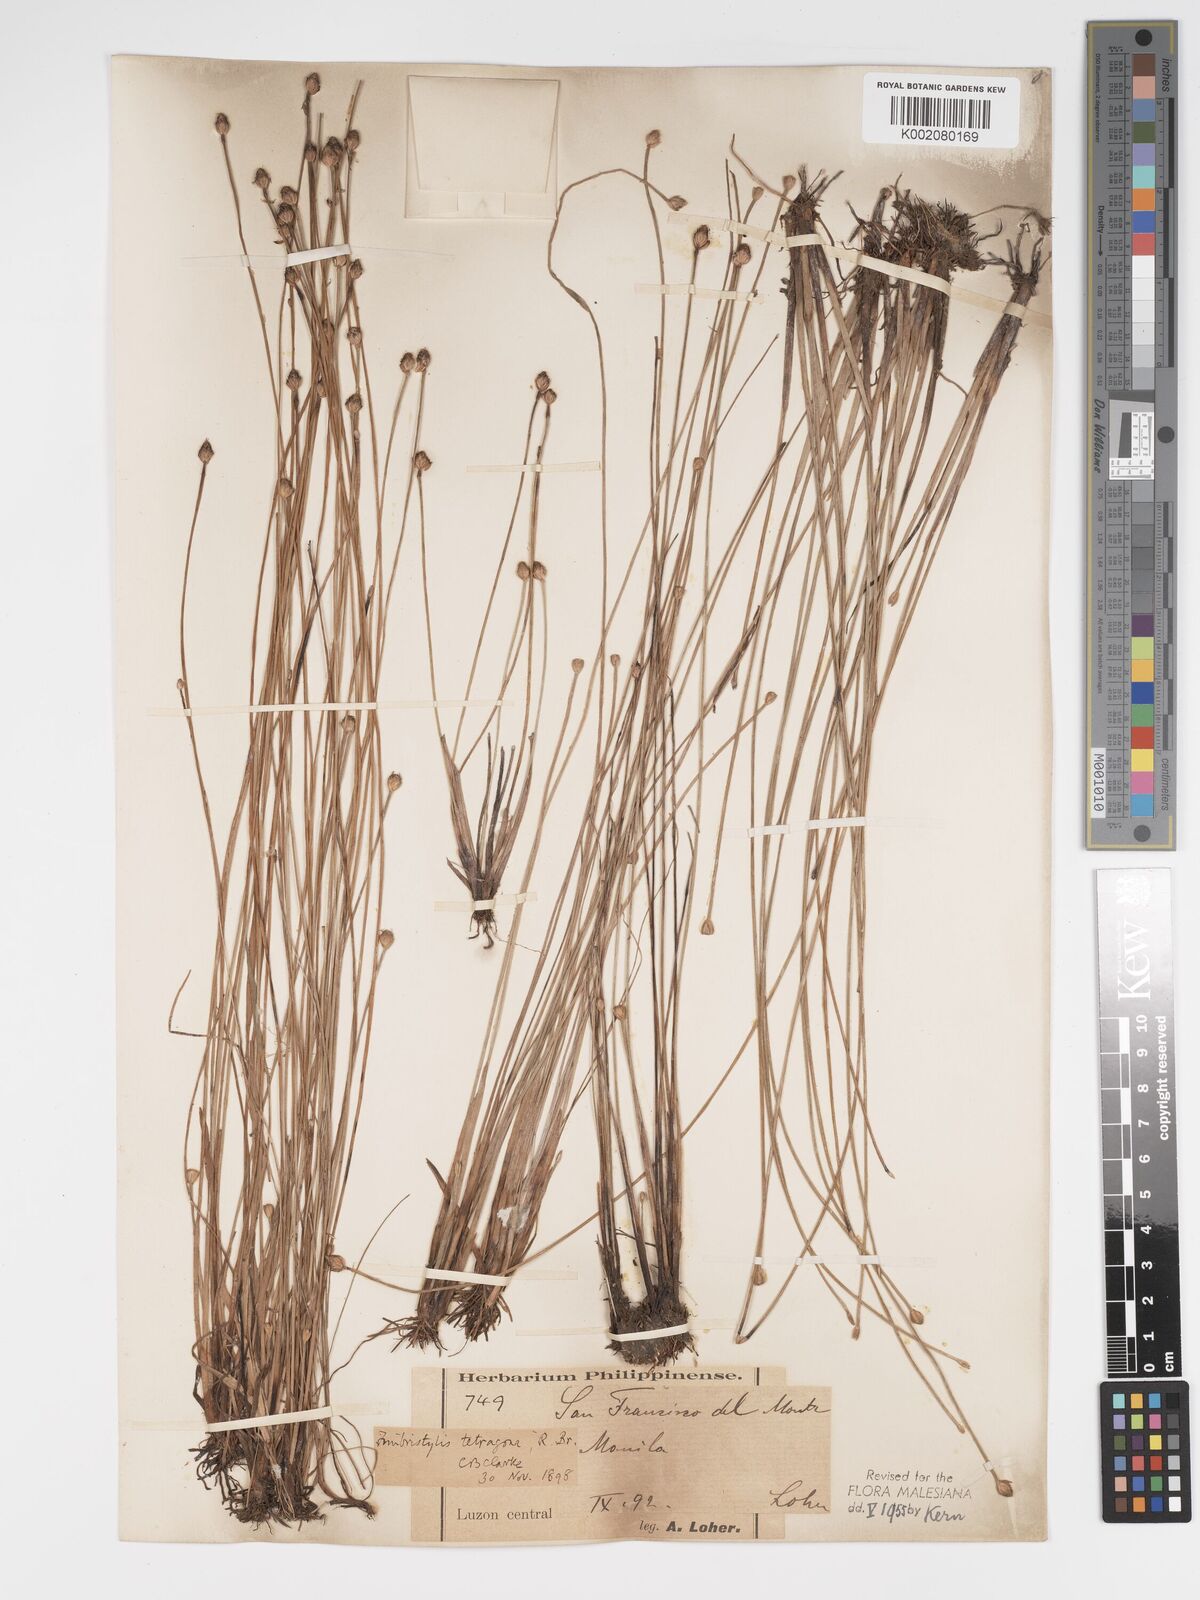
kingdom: Plantae
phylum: Tracheophyta
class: Liliopsida
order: Poales
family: Cyperaceae
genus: Fimbristylis
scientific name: Fimbristylis tetragona
